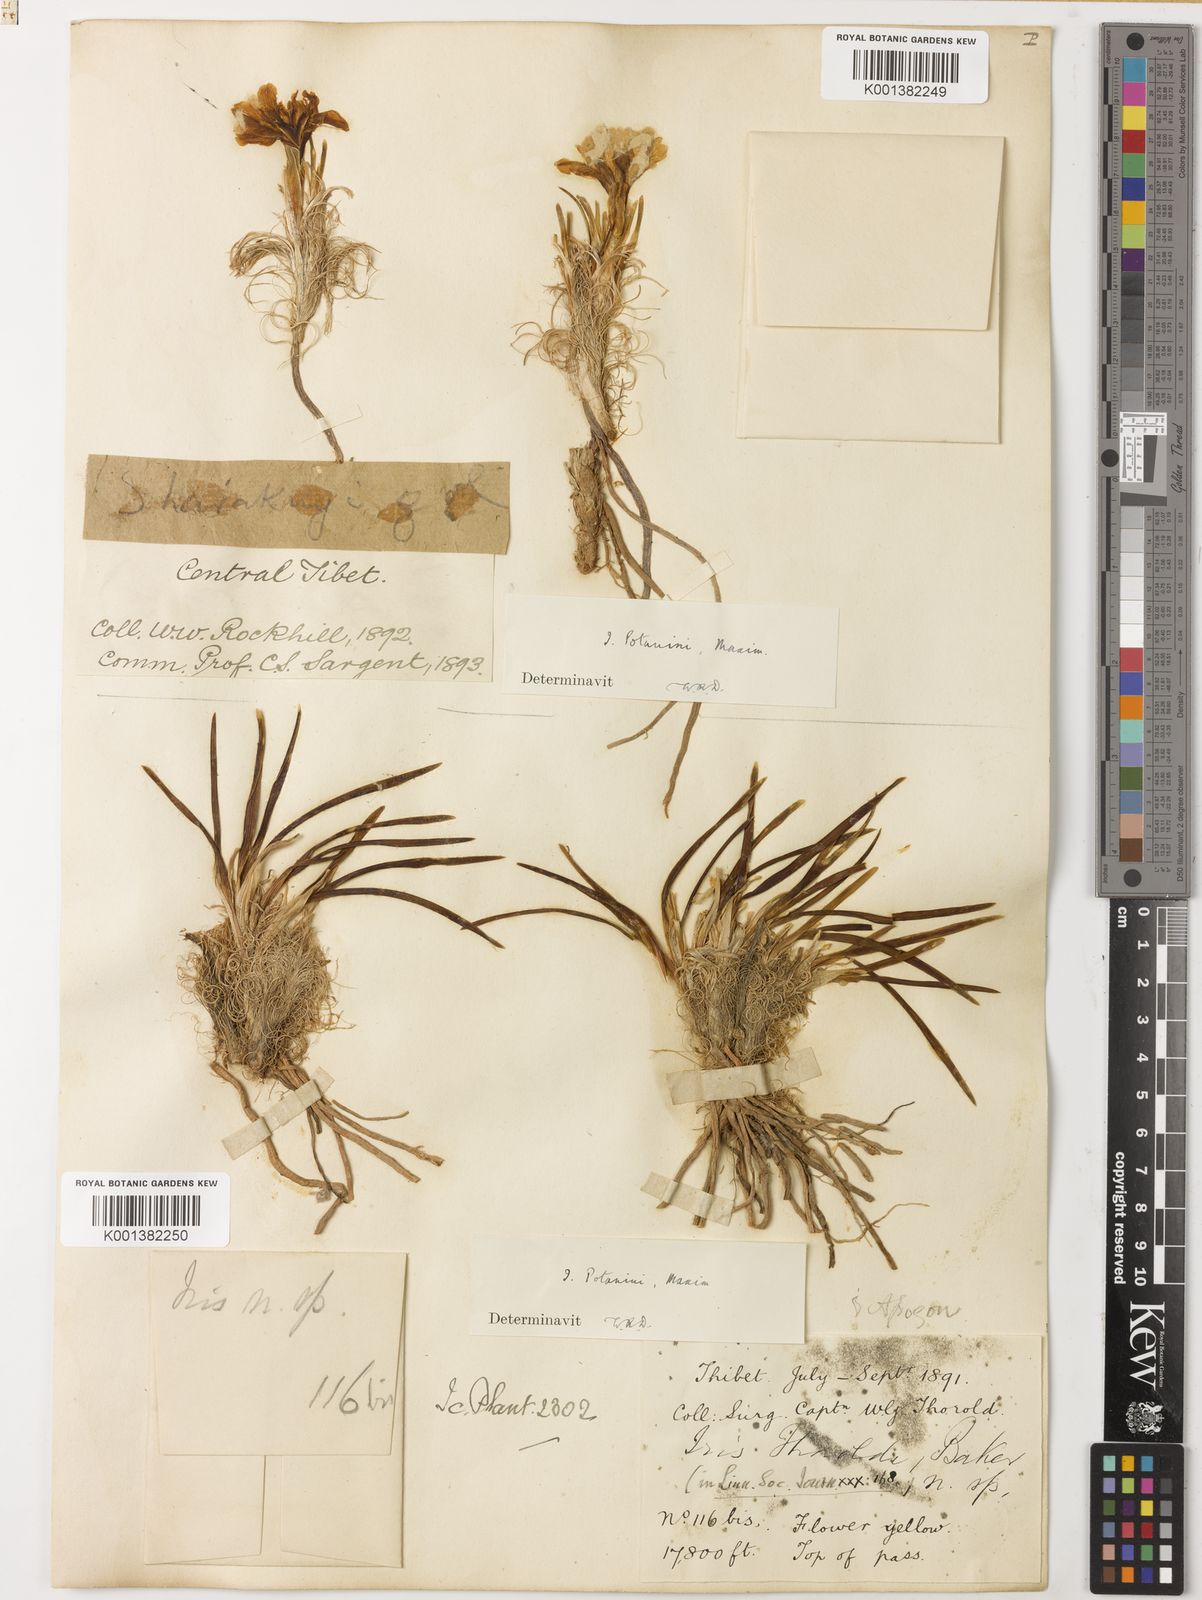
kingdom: Plantae
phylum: Tracheophyta
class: Liliopsida
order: Asparagales
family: Iridaceae
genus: Iris
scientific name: Iris potaninii
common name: Curl-sheath iris
